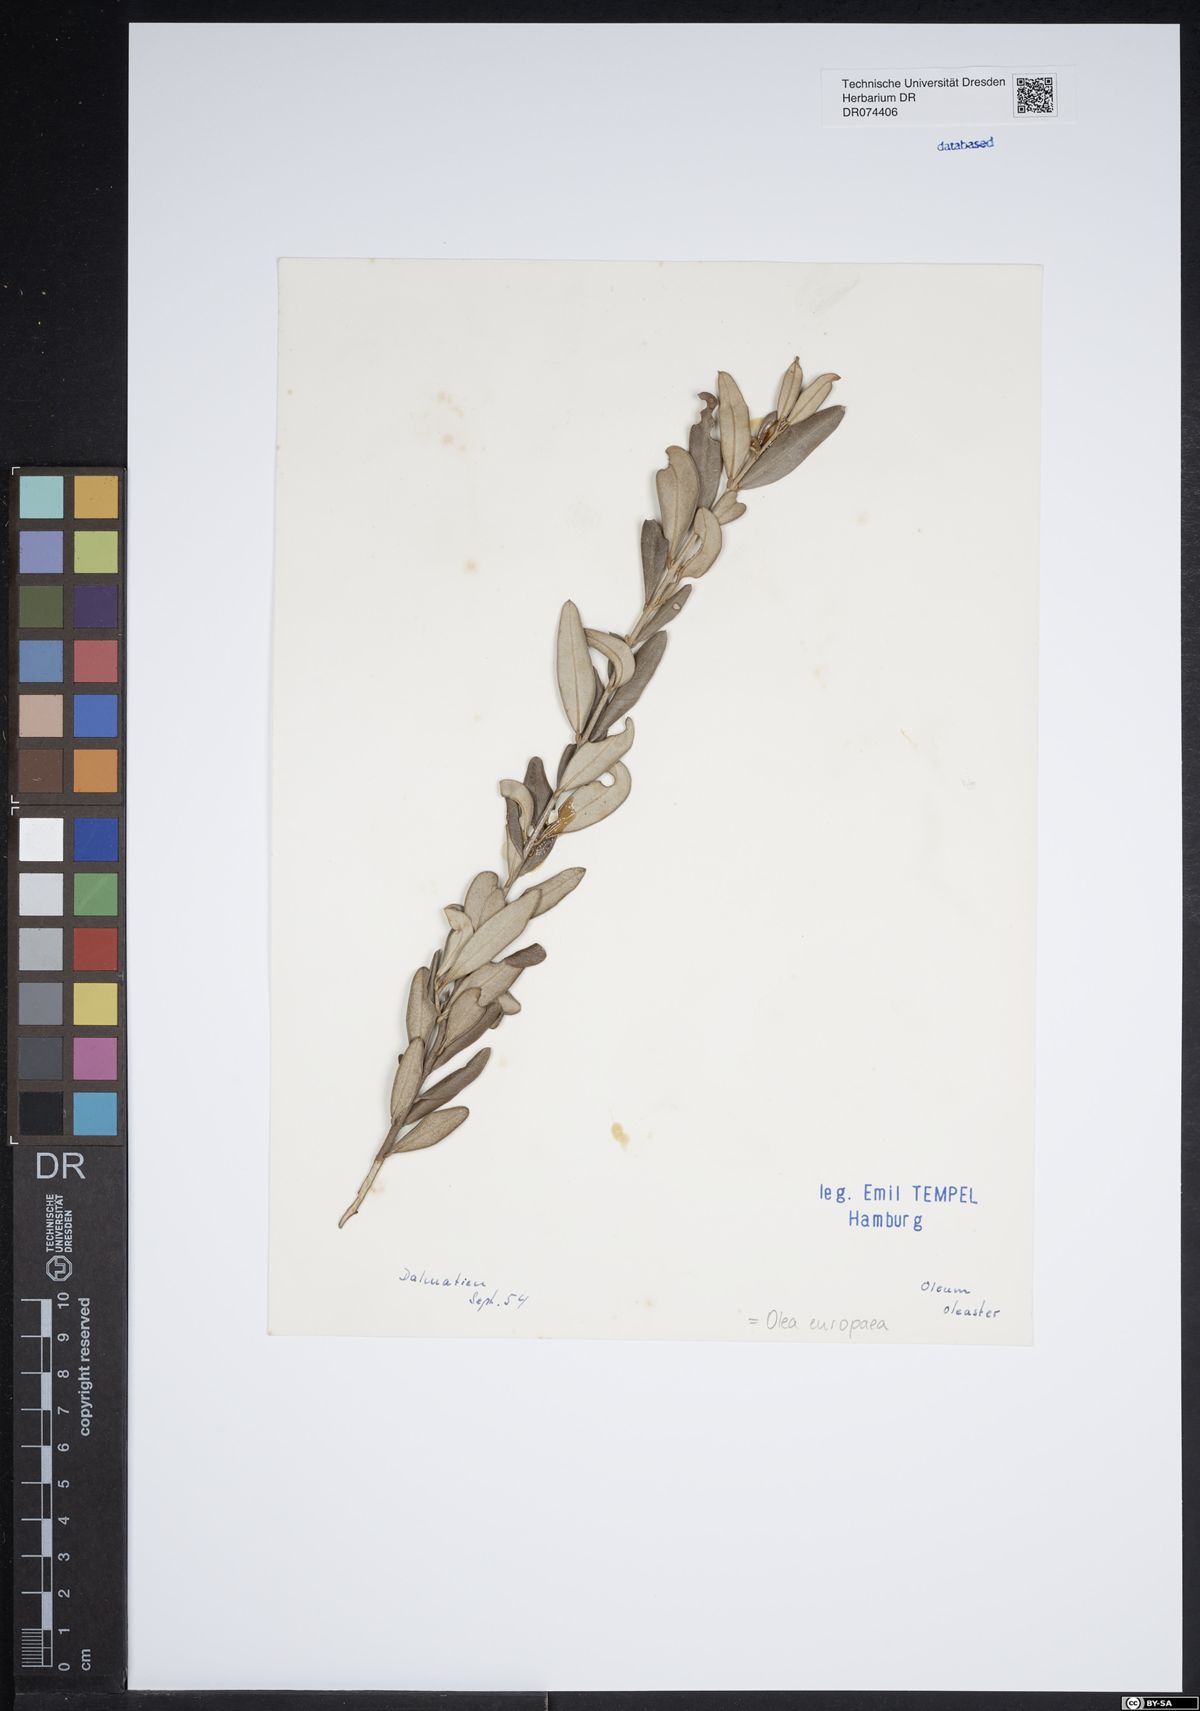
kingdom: Plantae
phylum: Tracheophyta
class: Magnoliopsida
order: Lamiales
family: Oleaceae
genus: Olea
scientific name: Olea europaea
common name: Olive
